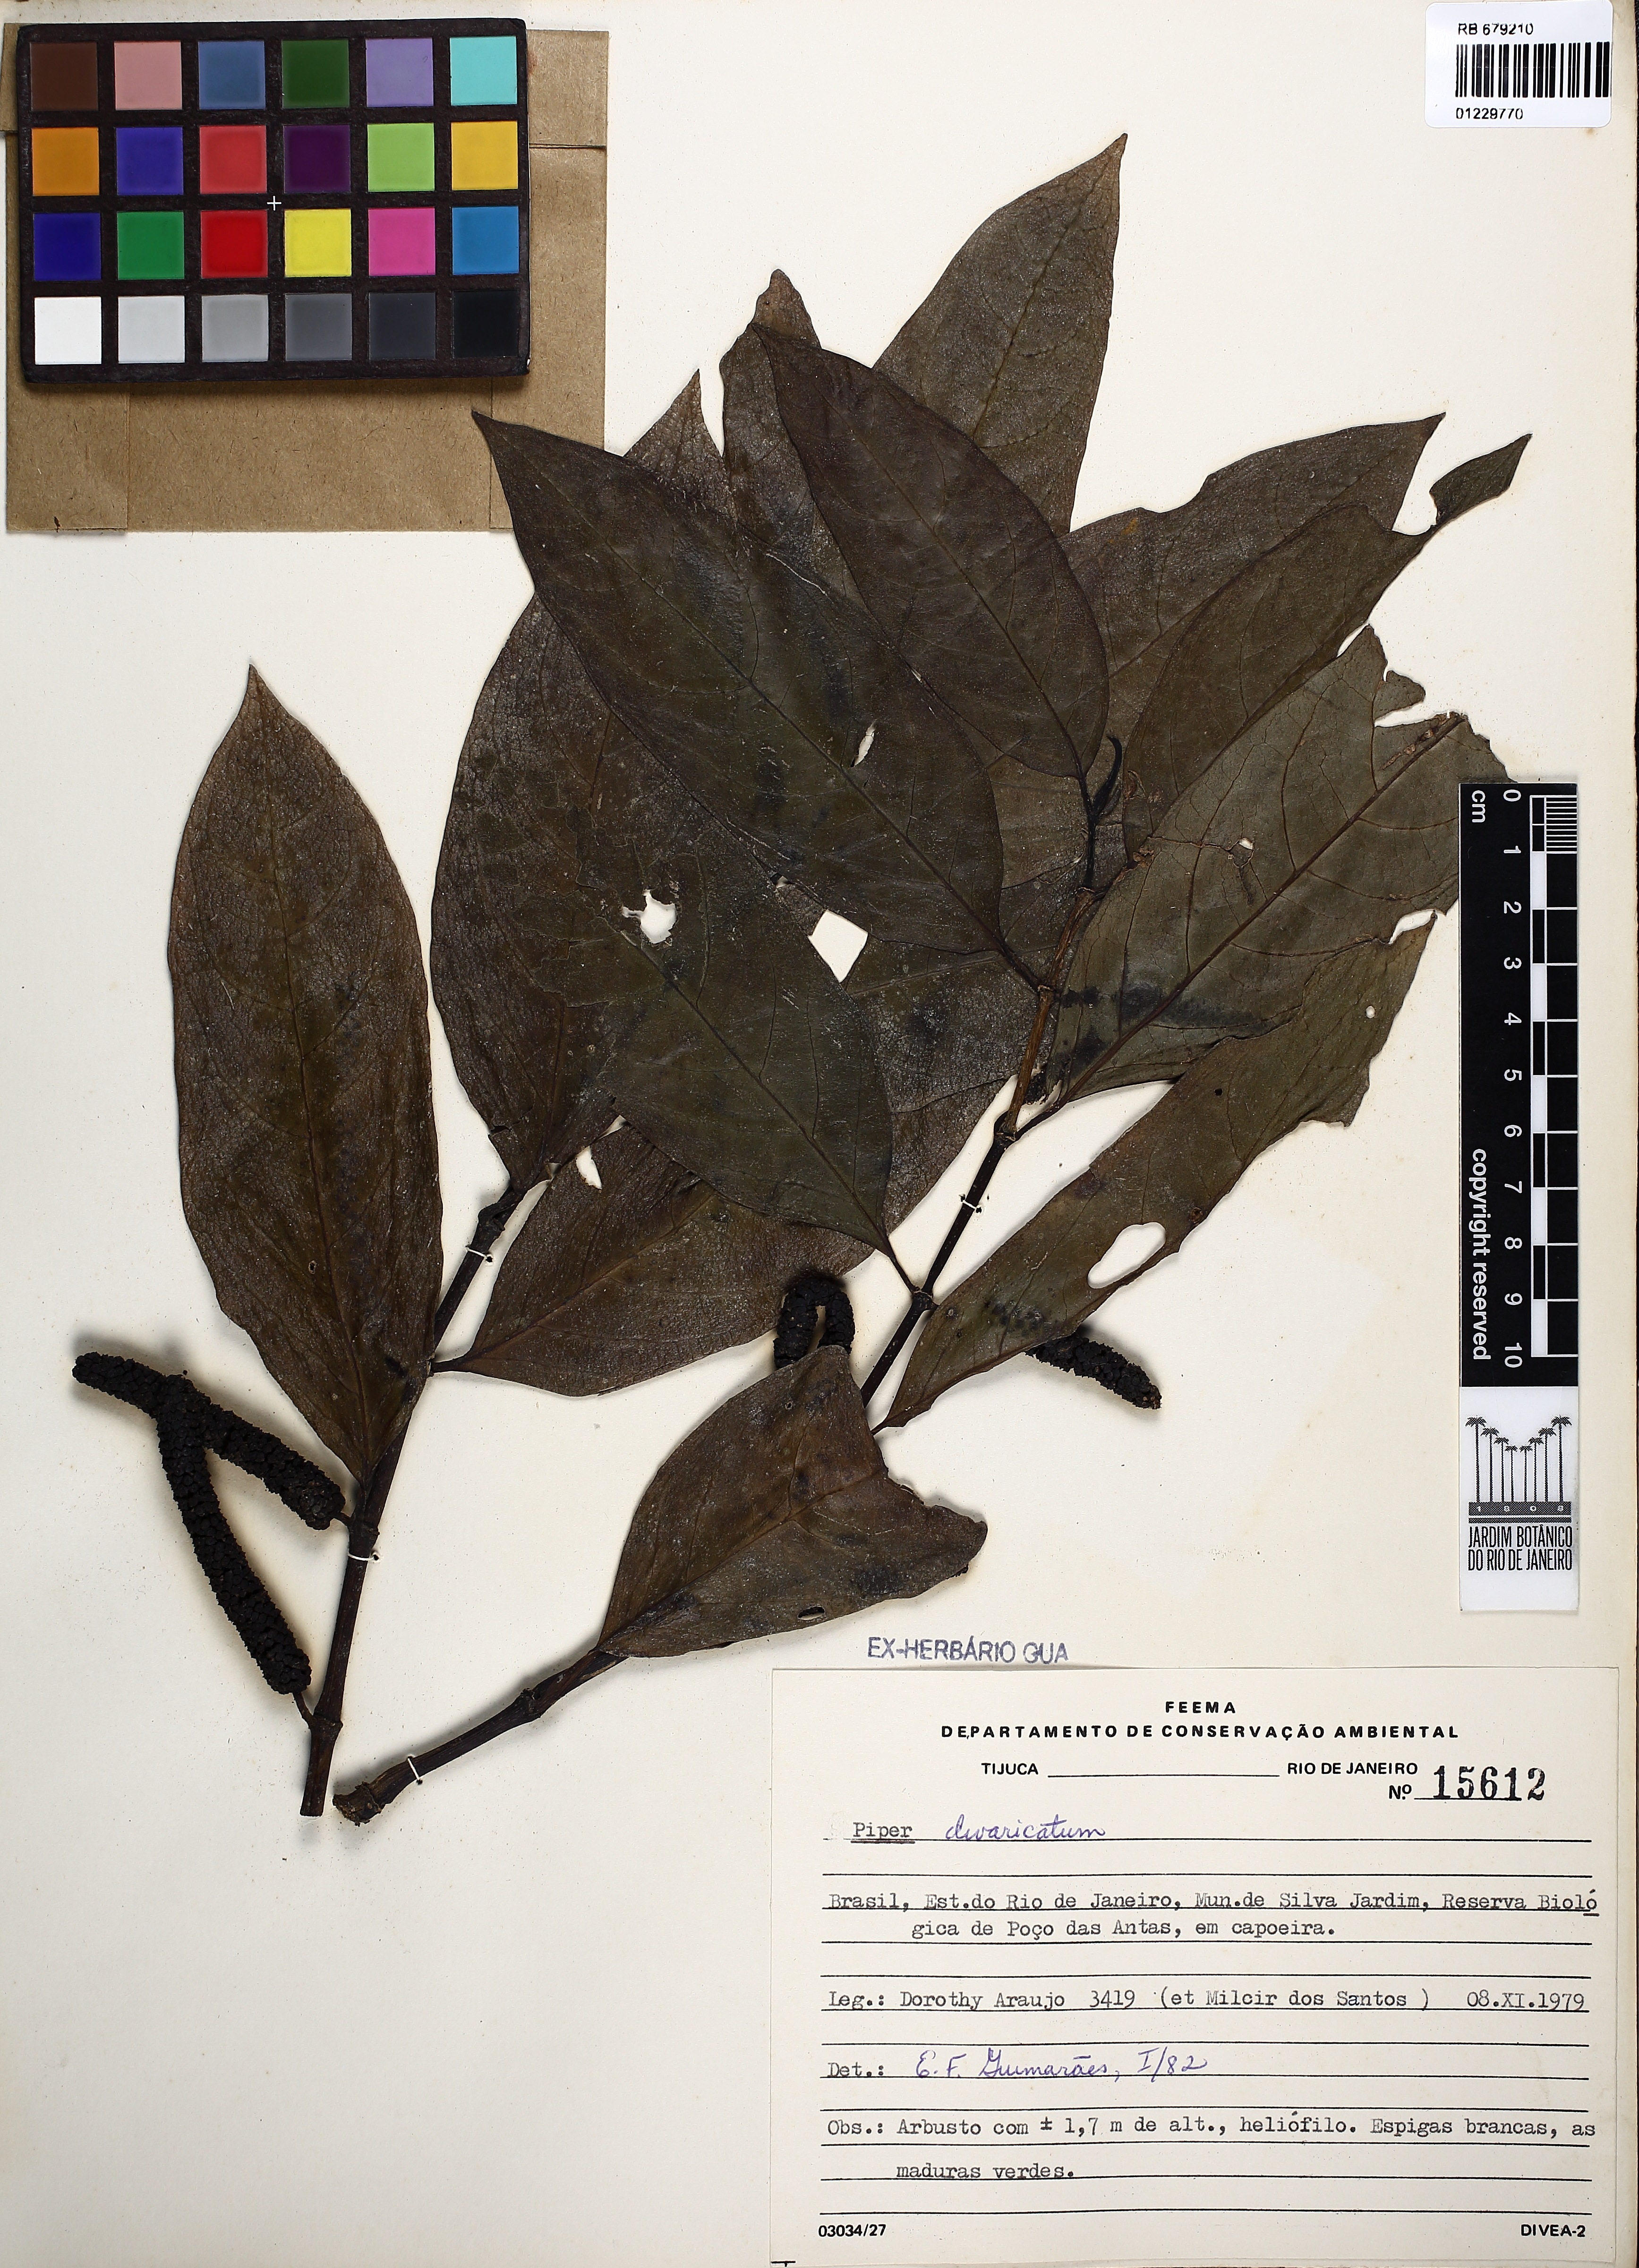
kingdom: Plantae
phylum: Tracheophyta
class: Magnoliopsida
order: Piperales
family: Piperaceae
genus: Piper
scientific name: Piper divaricatum
